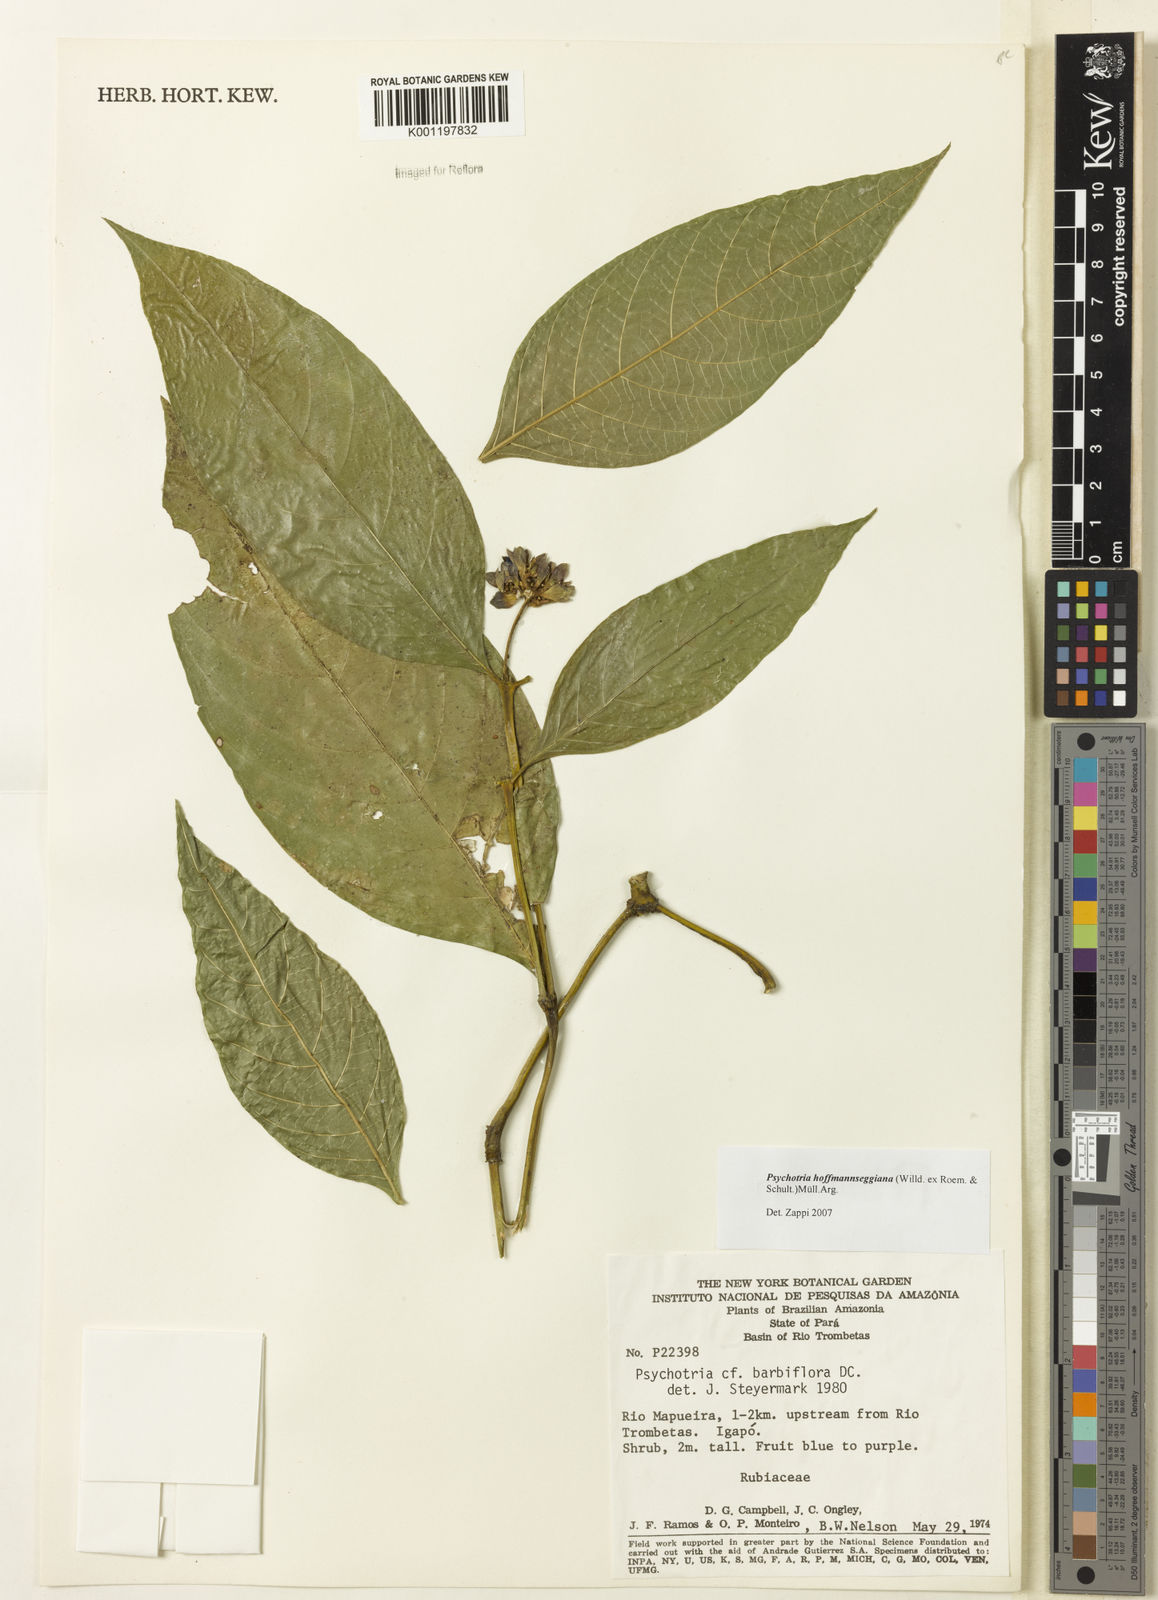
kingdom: Plantae
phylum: Tracheophyta
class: Magnoliopsida
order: Gentianales
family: Rubiaceae
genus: Psychotria
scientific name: Psychotria
